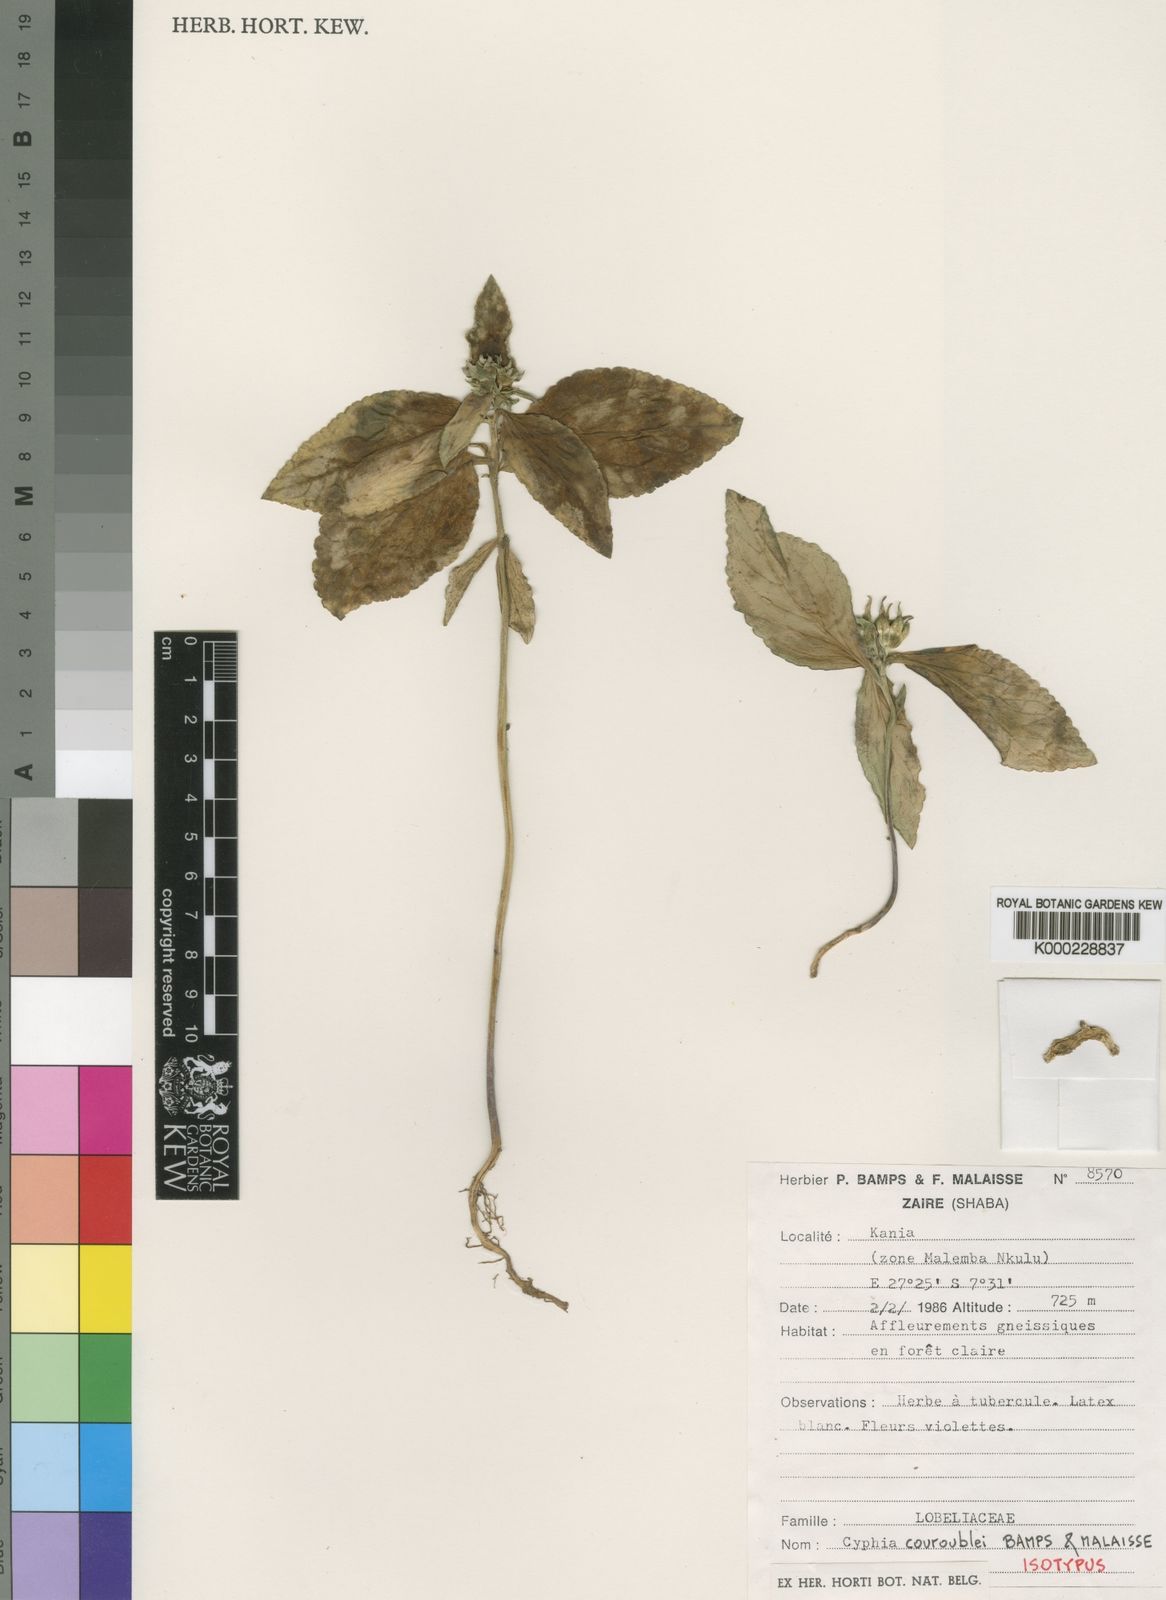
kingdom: Plantae
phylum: Tracheophyta
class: Magnoliopsida
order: Asterales
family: Campanulaceae
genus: Cyphia
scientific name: Cyphia couroublei
